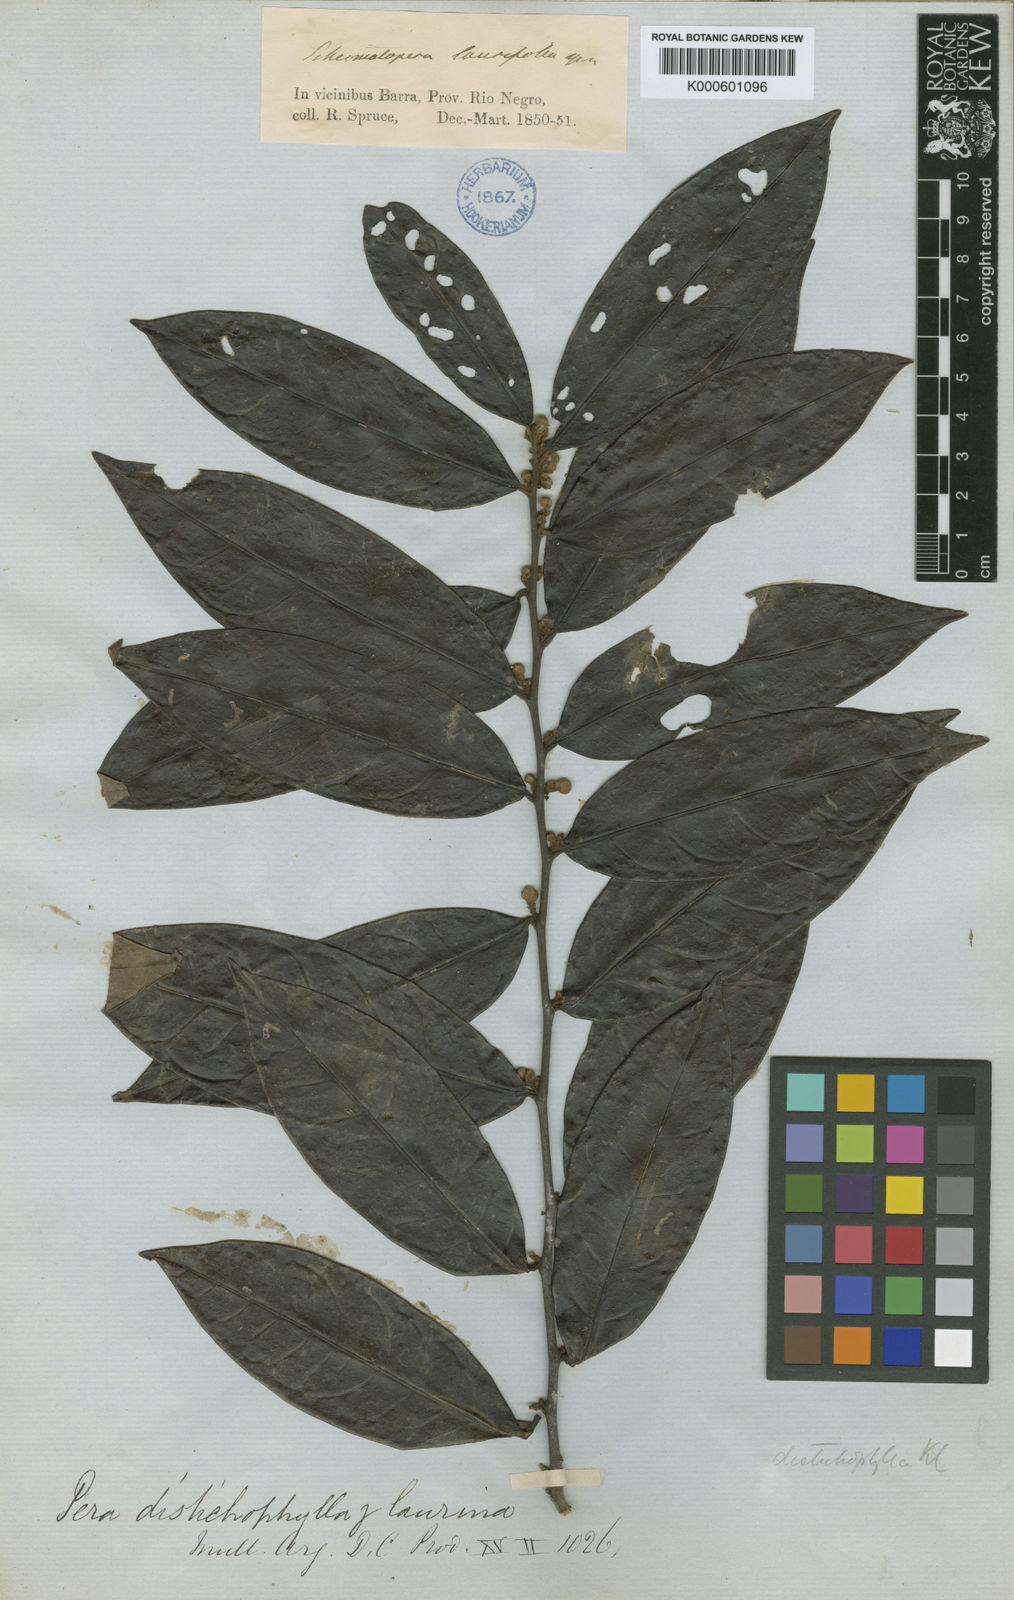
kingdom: Plantae
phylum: Tracheophyta
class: Magnoliopsida
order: Malpighiales
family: Peraceae
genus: Pera
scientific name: Pera distichophylla
